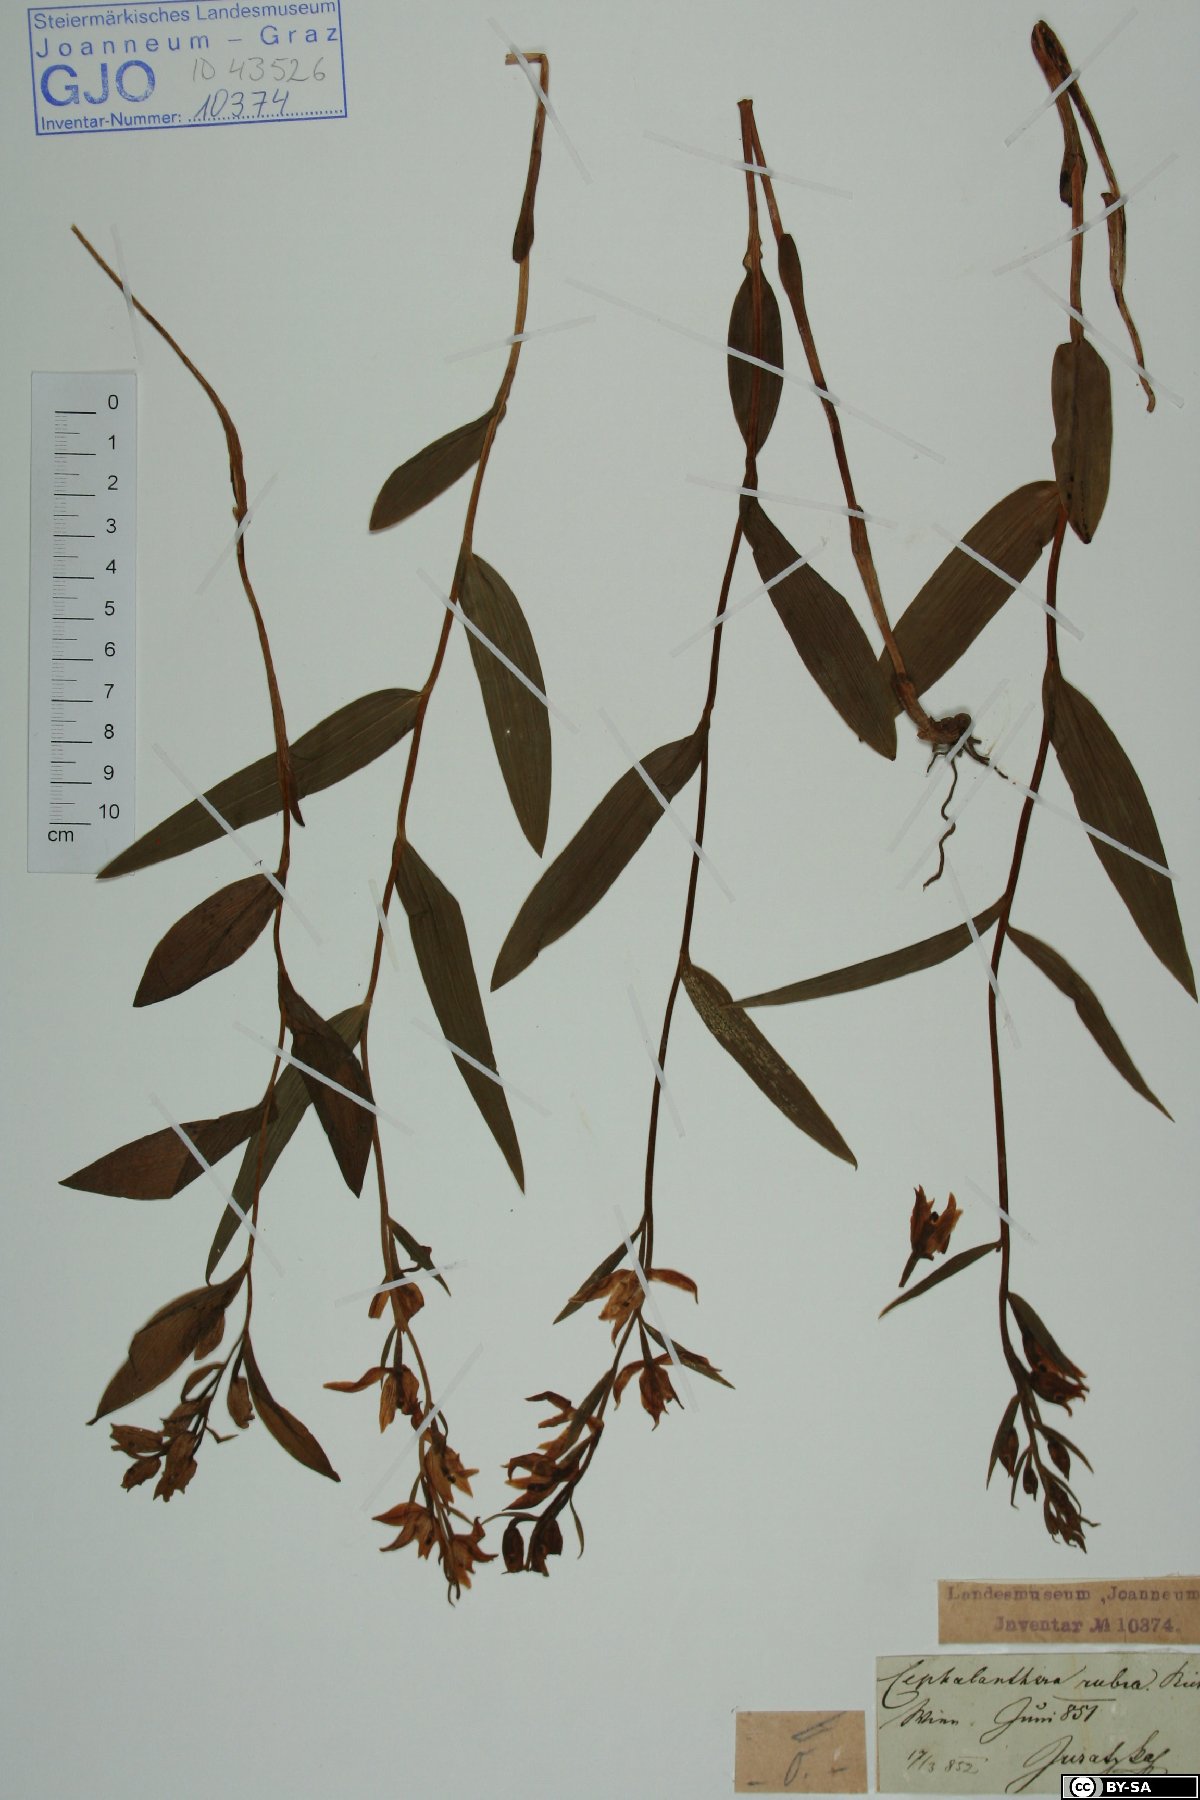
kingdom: Plantae
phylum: Tracheophyta
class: Liliopsida
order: Asparagales
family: Orchidaceae
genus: Cephalanthera
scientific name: Cephalanthera rubra
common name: Red helleborine
